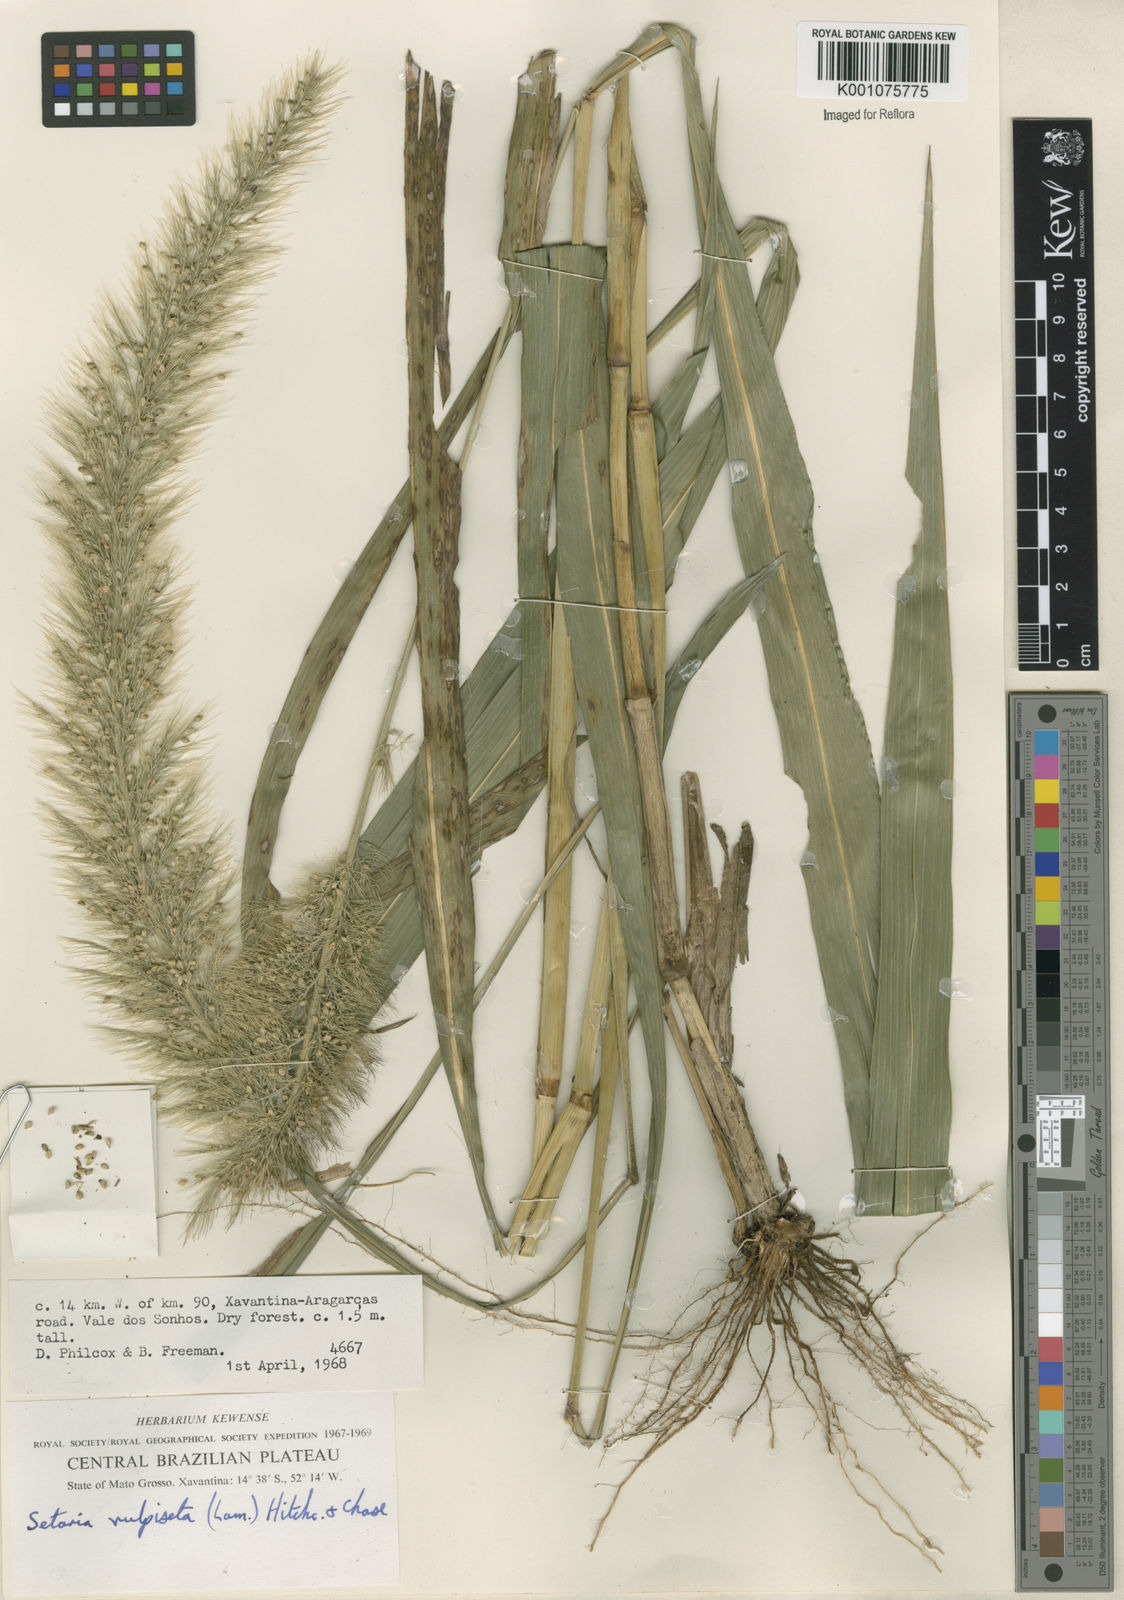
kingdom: Plantae
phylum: Tracheophyta
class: Liliopsida
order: Poales
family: Poaceae
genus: Setaria
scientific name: Setaria vulpiseta
